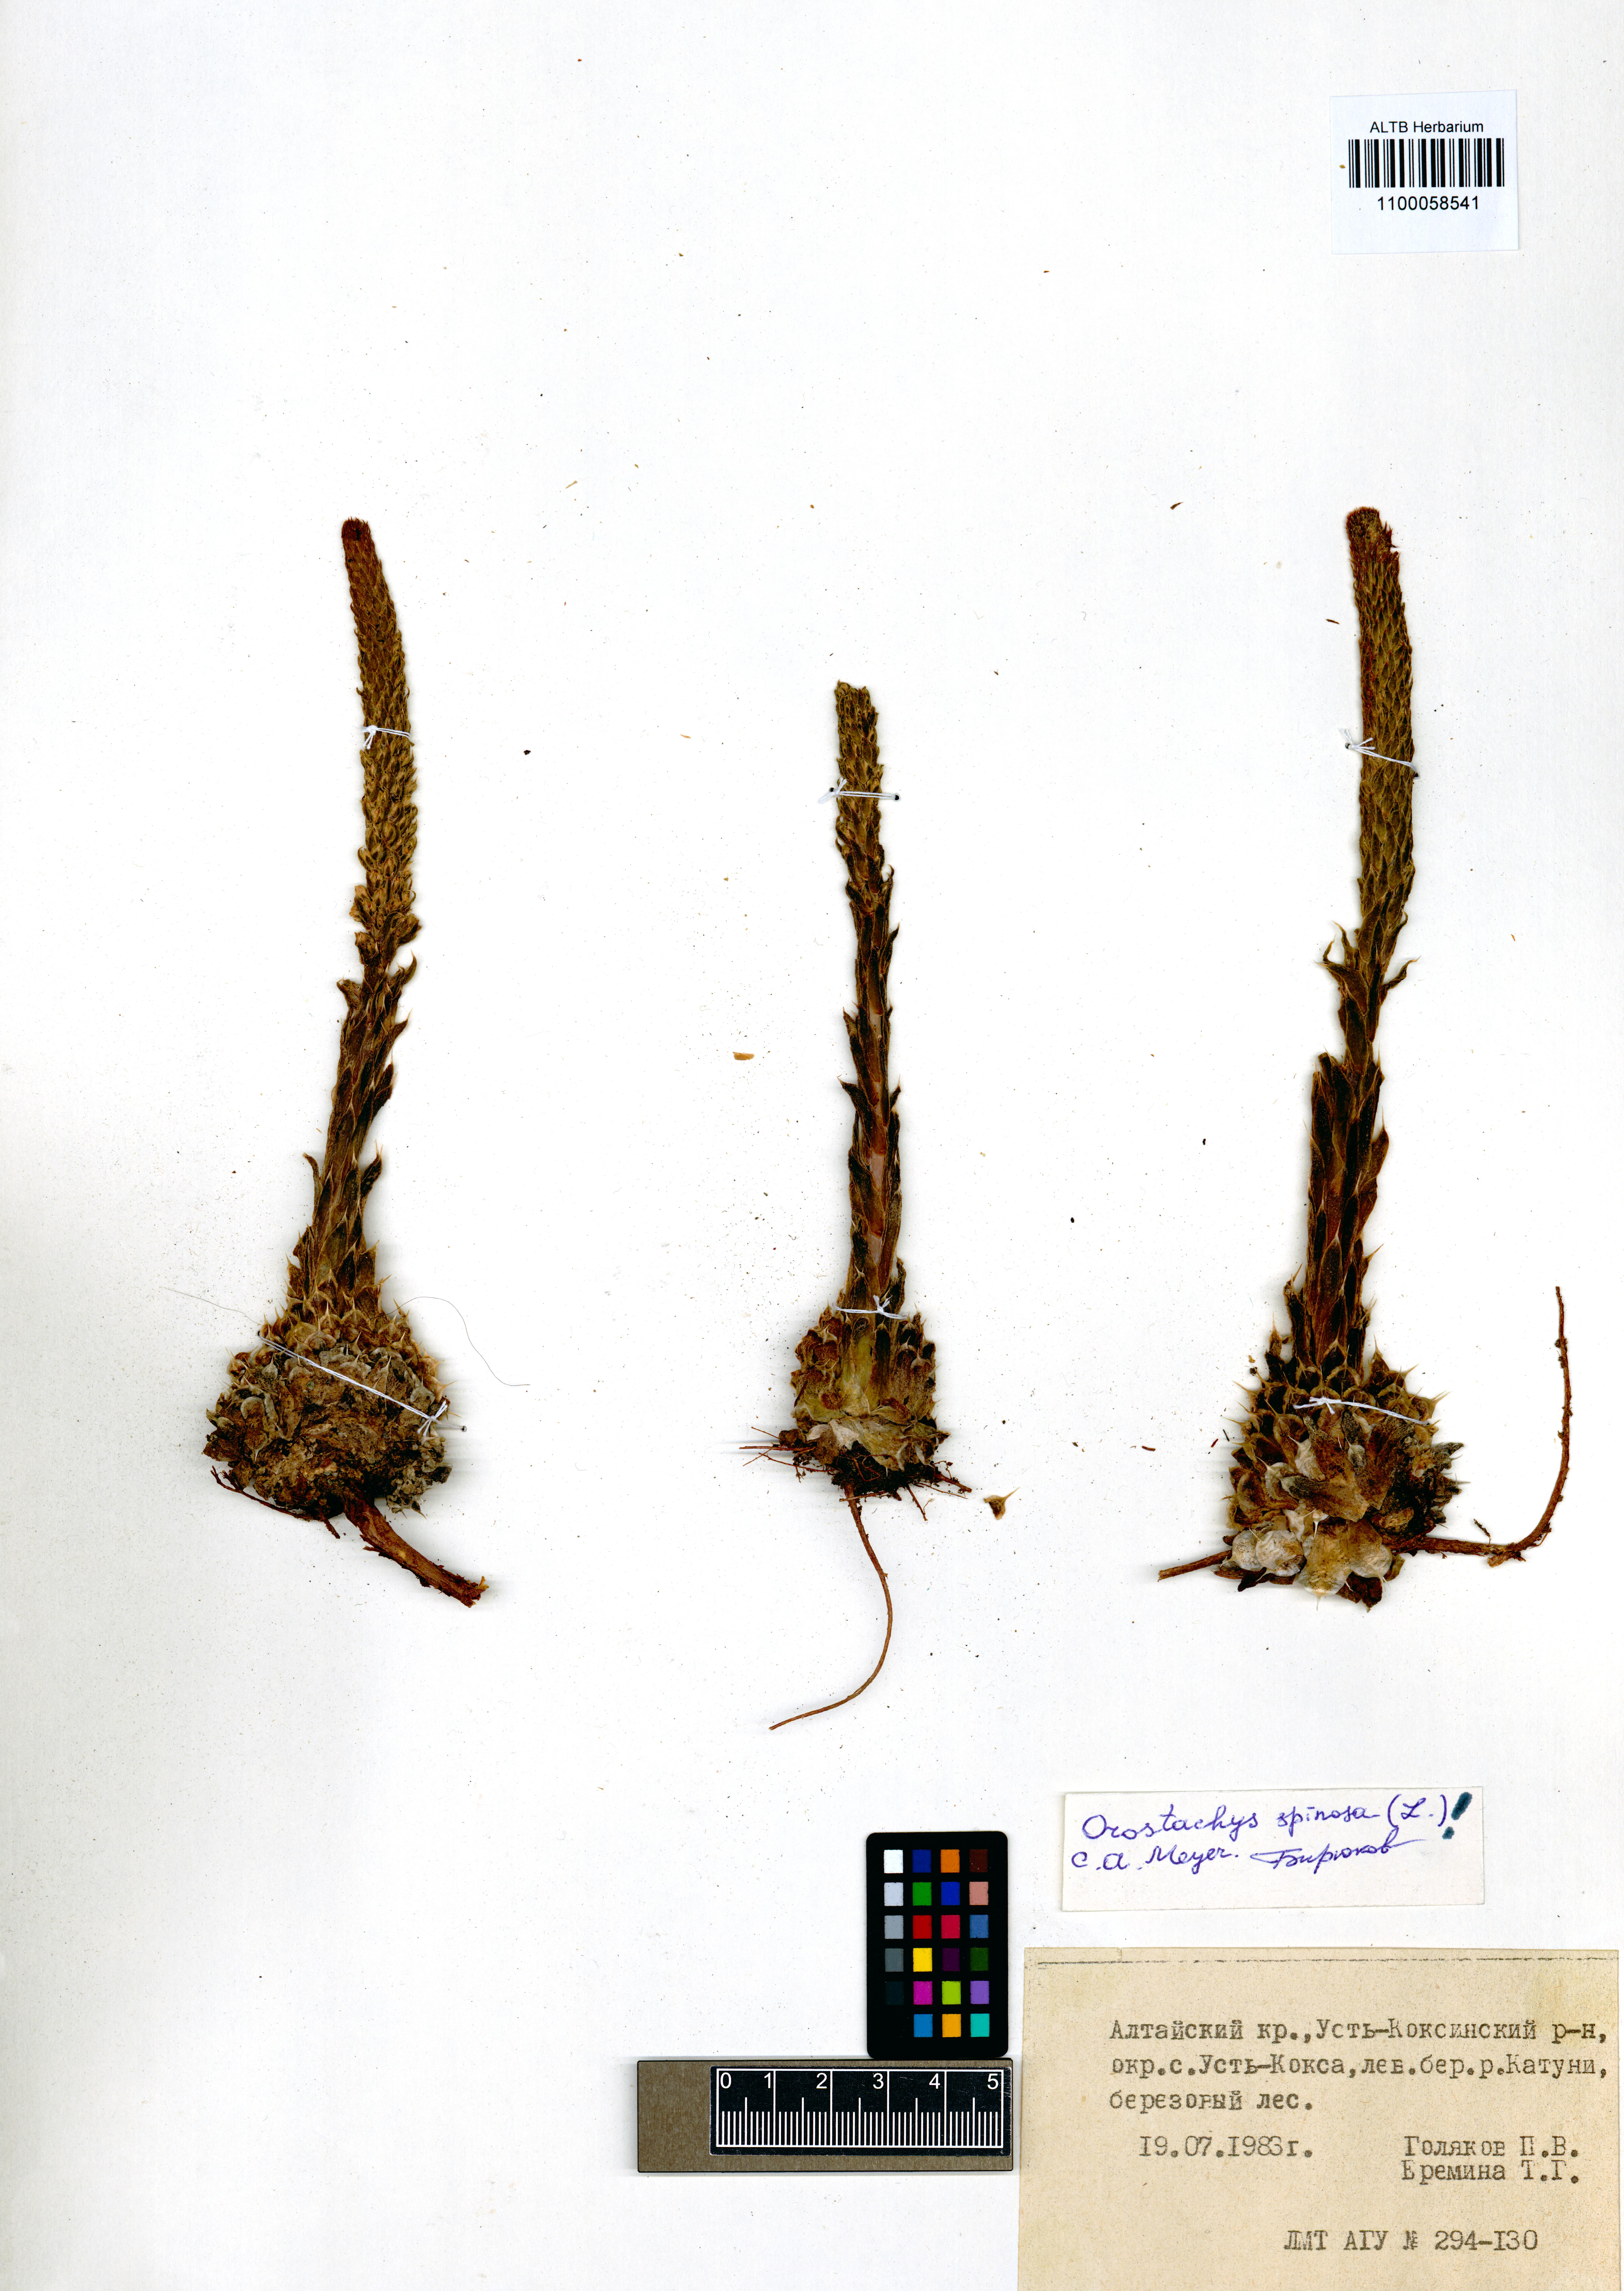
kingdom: Plantae
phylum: Tracheophyta
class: Magnoliopsida
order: Saxifragales
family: Crassulaceae
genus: Orostachys
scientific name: Orostachys spinosa
